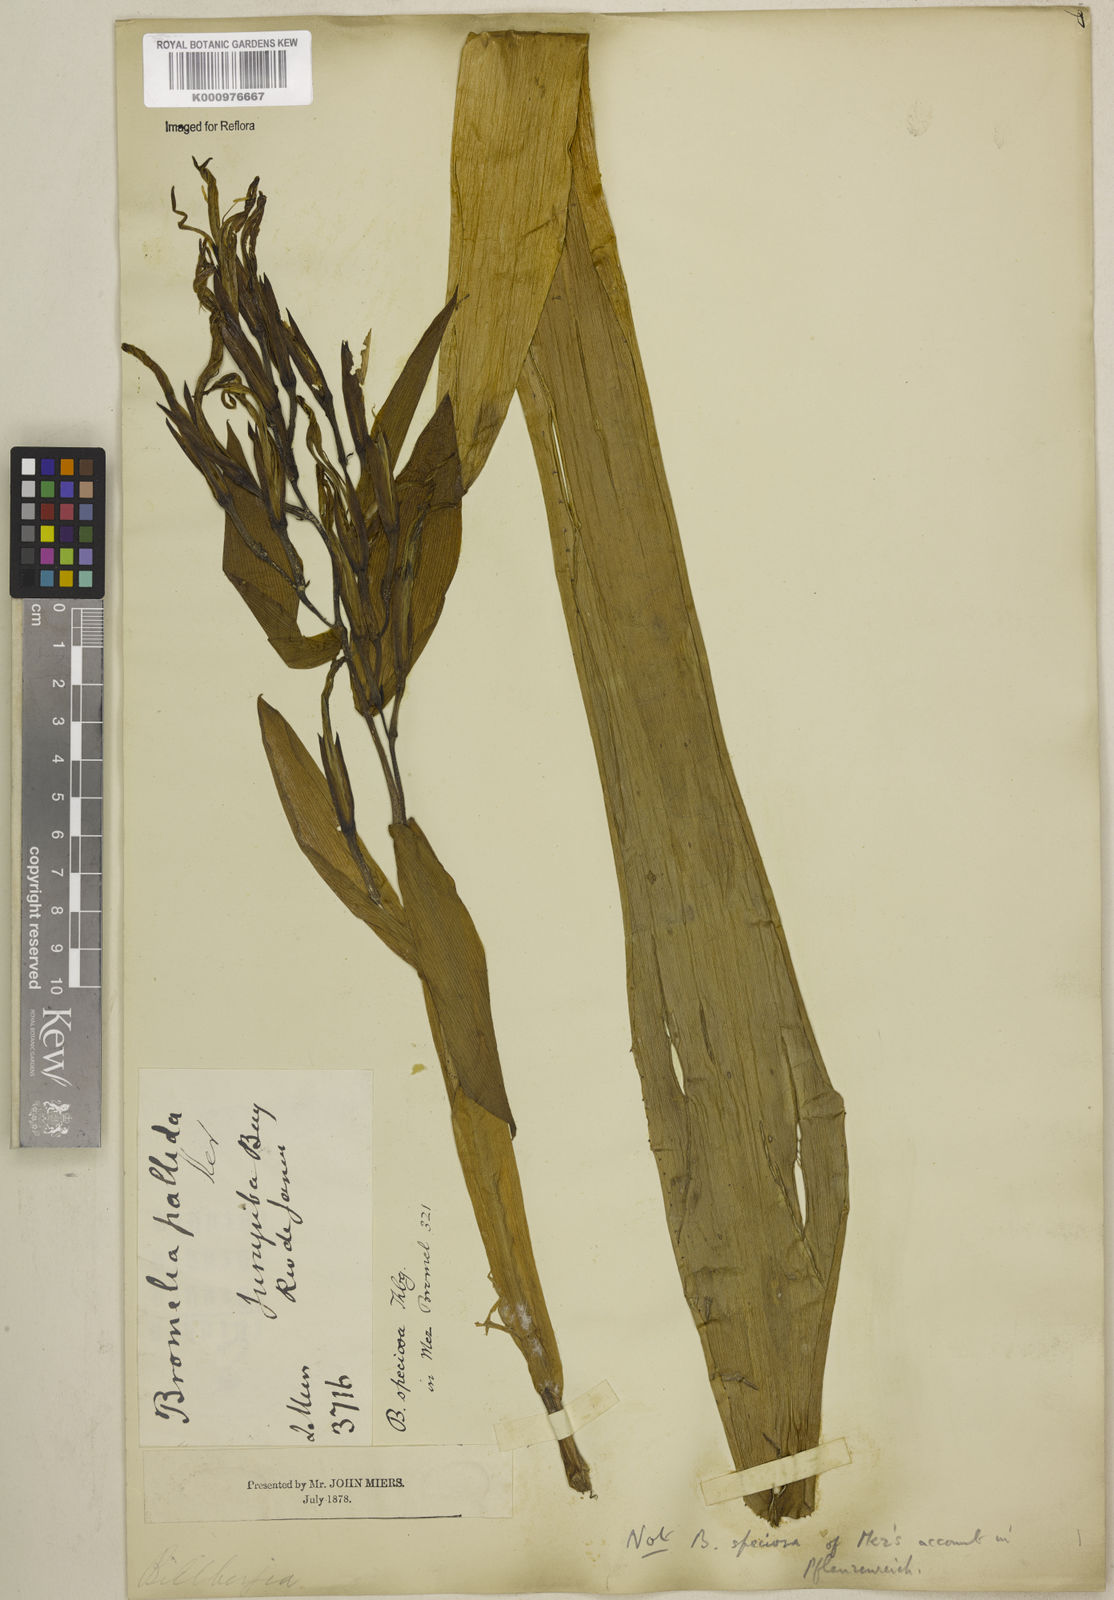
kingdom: Plantae
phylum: Tracheophyta
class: Liliopsida
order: Poales
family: Bromeliaceae
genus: Billbergia
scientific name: Billbergia amoena
